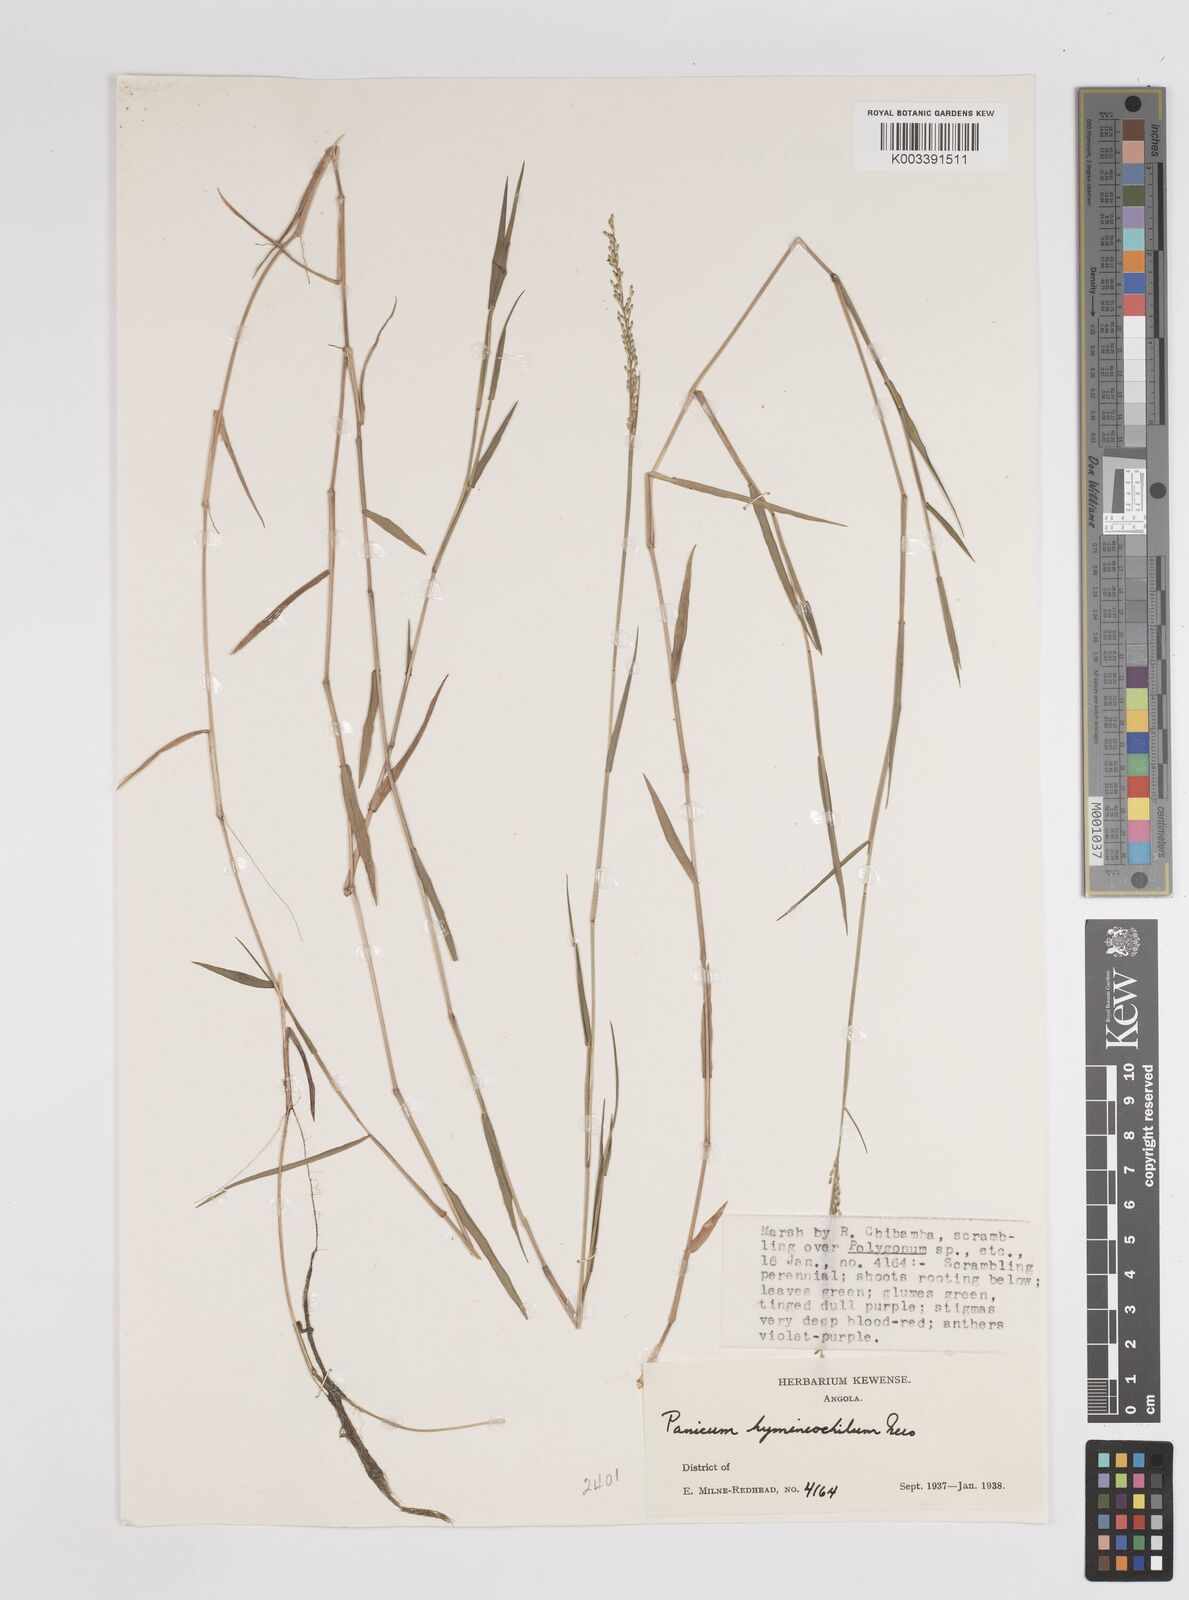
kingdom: Plantae
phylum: Tracheophyta
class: Liliopsida
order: Poales
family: Poaceae
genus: Adenochloa
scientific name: Adenochloa hymeniochila
